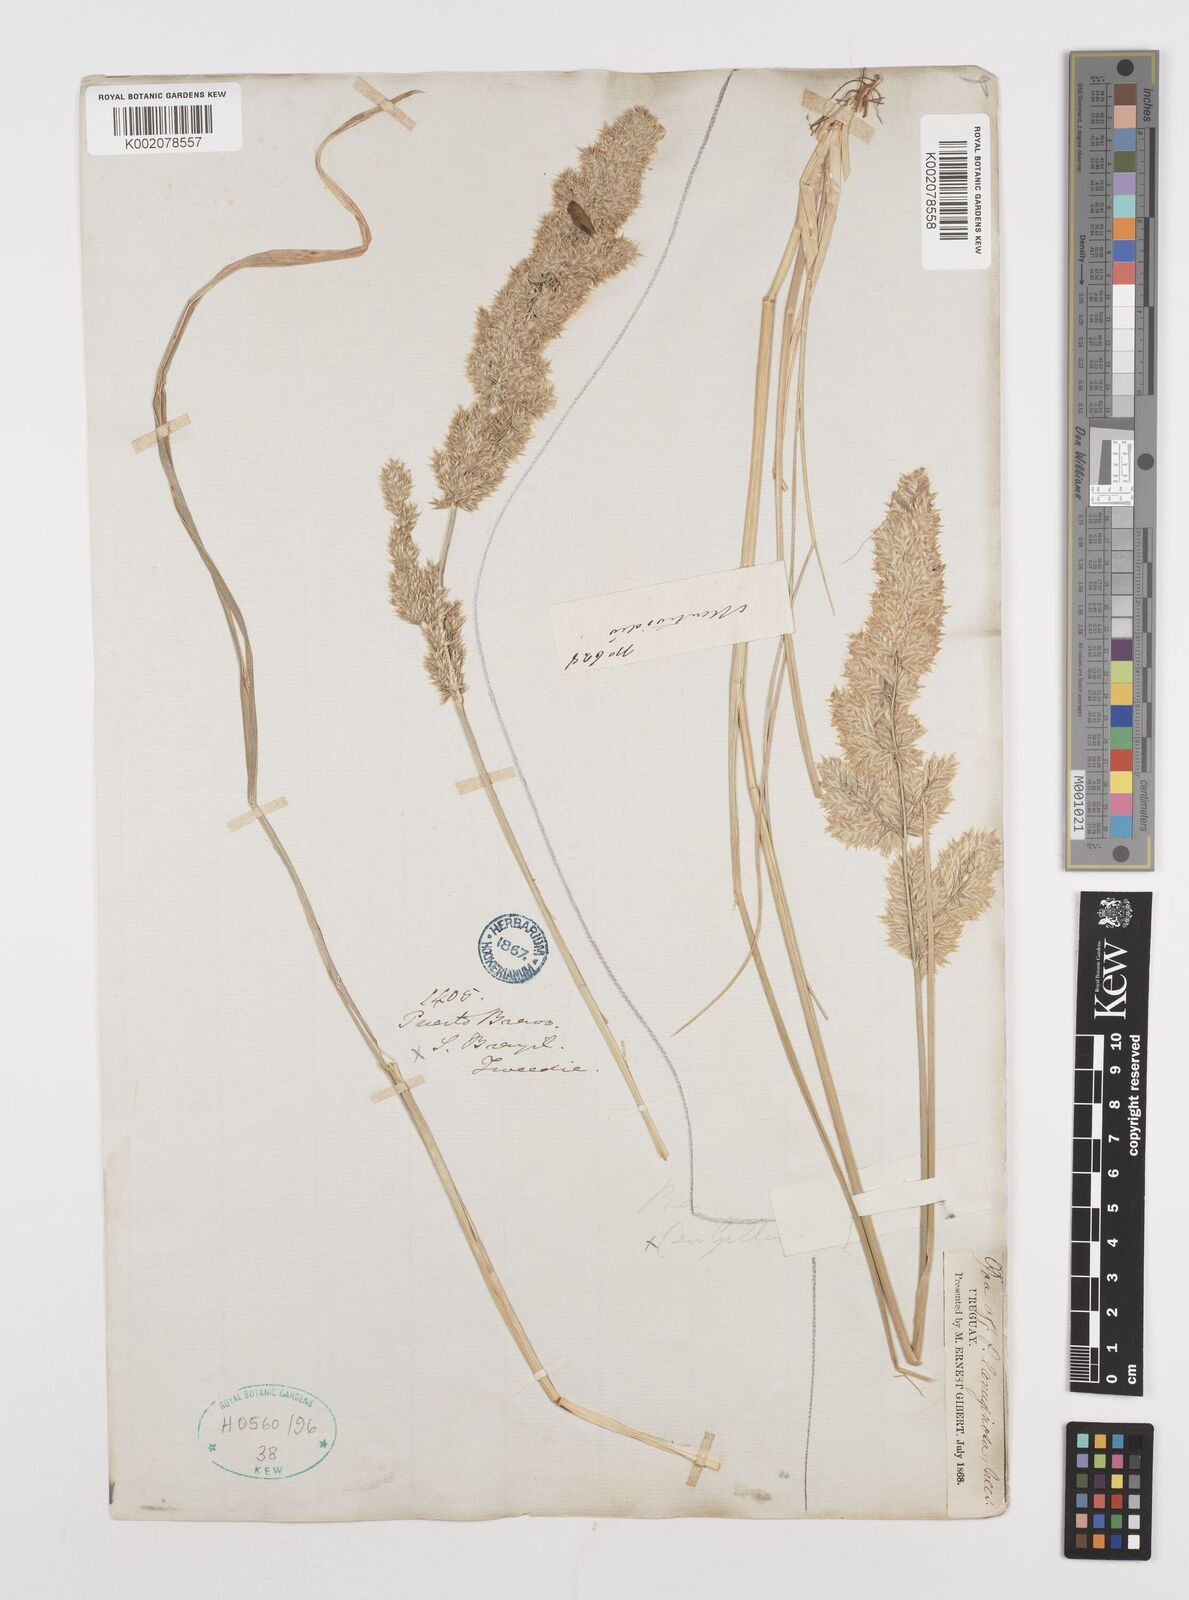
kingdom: Plantae
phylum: Tracheophyta
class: Liliopsida
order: Poales
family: Poaceae
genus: Poa
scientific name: Poa lanuginosa
